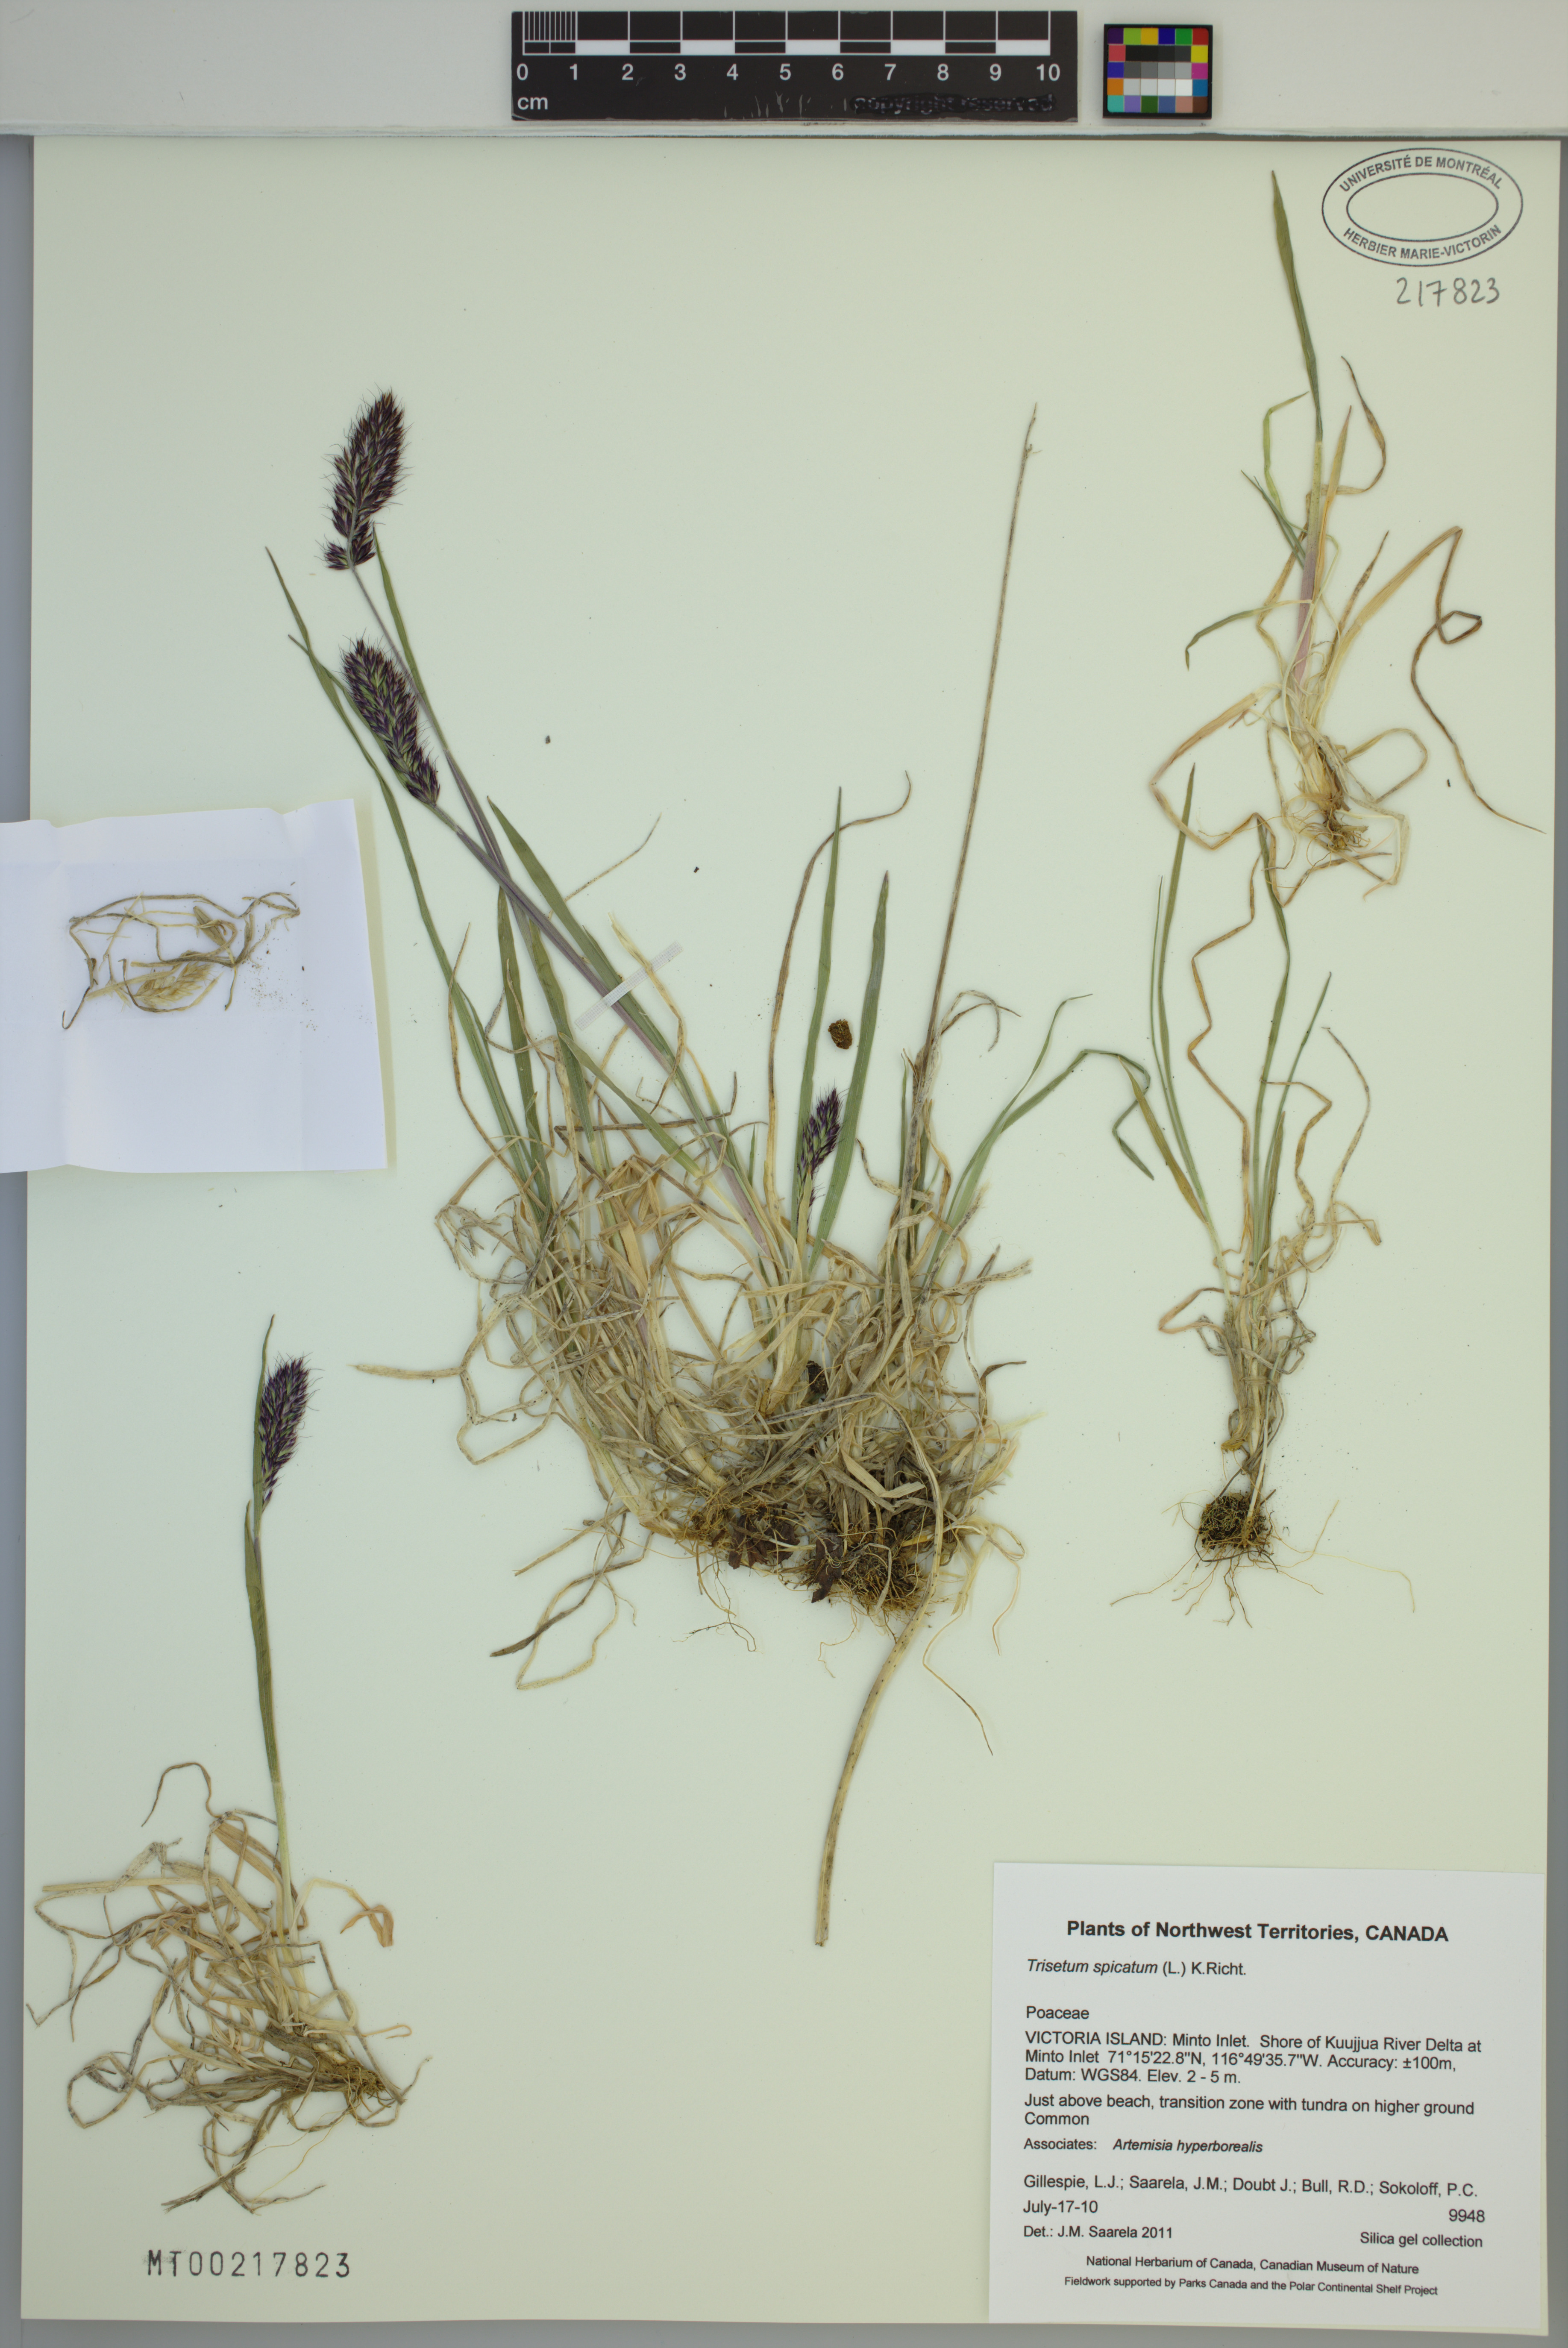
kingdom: Plantae
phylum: Tracheophyta
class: Liliopsida
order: Poales
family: Poaceae
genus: Koeleria
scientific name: Koeleria spicata
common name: Mountain trisetum
